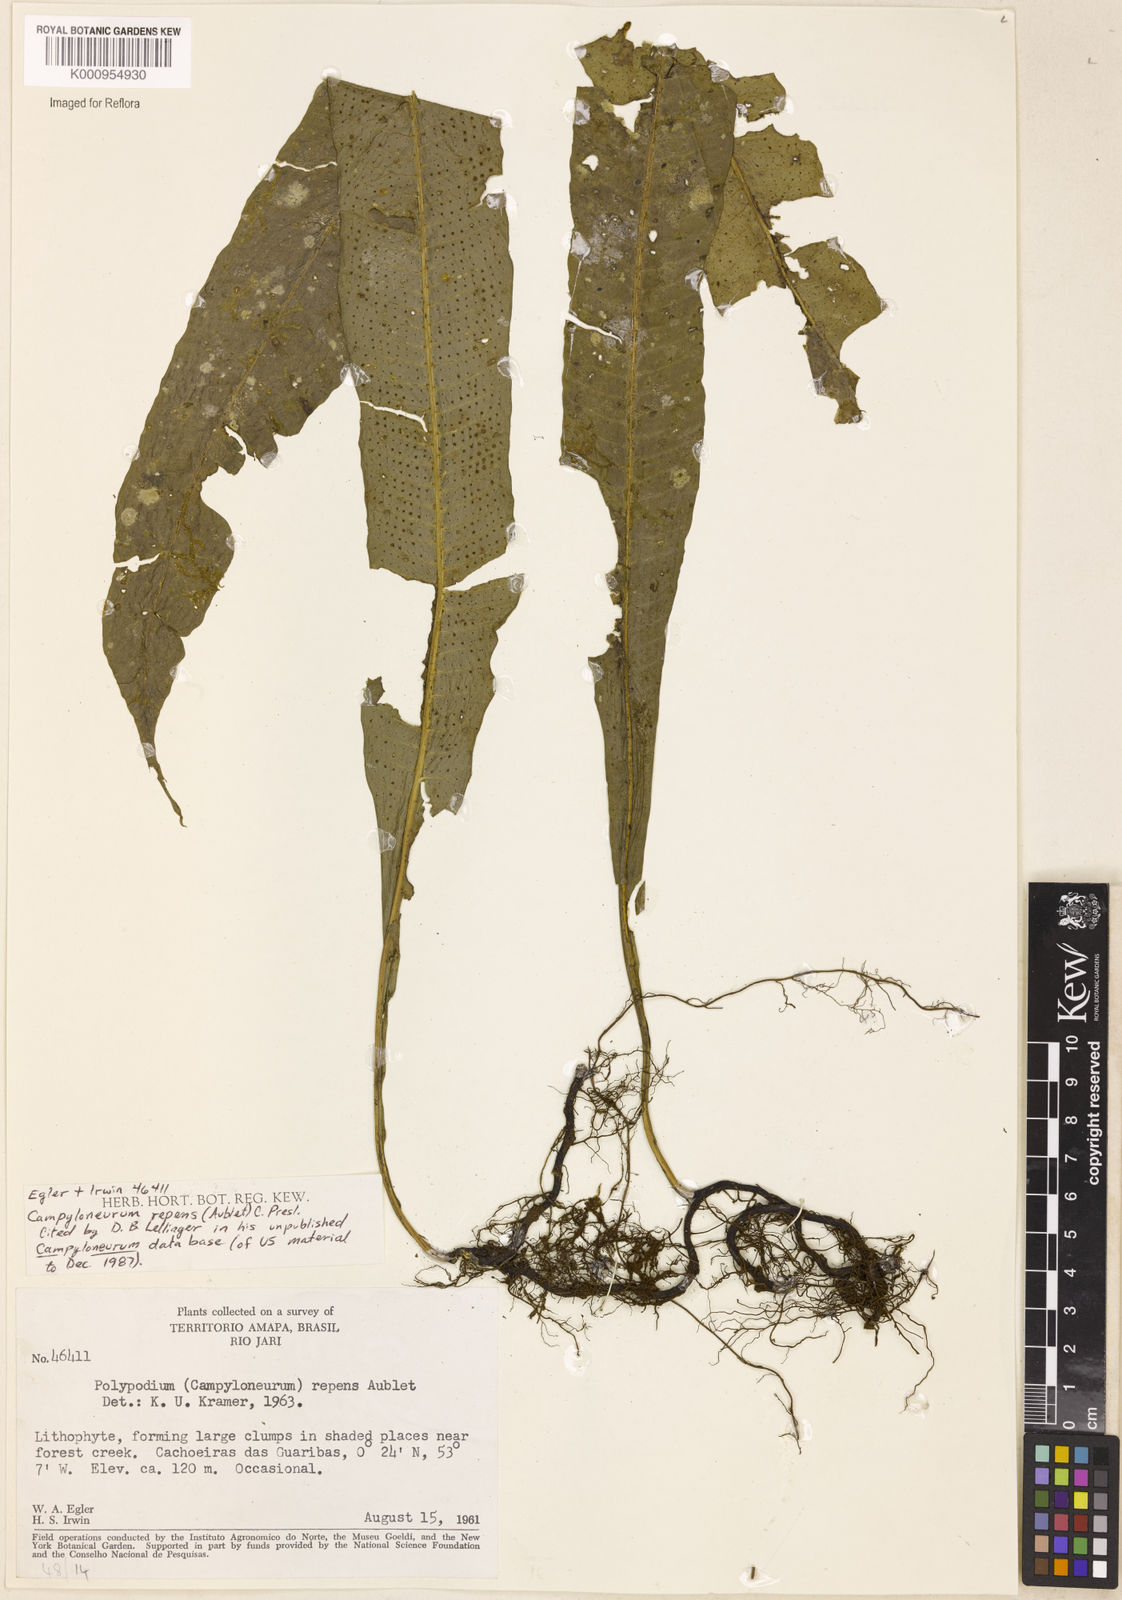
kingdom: Plantae
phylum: Tracheophyta
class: Polypodiopsida
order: Polypodiales
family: Polypodiaceae
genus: Campyloneurum
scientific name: Campyloneurum repens
